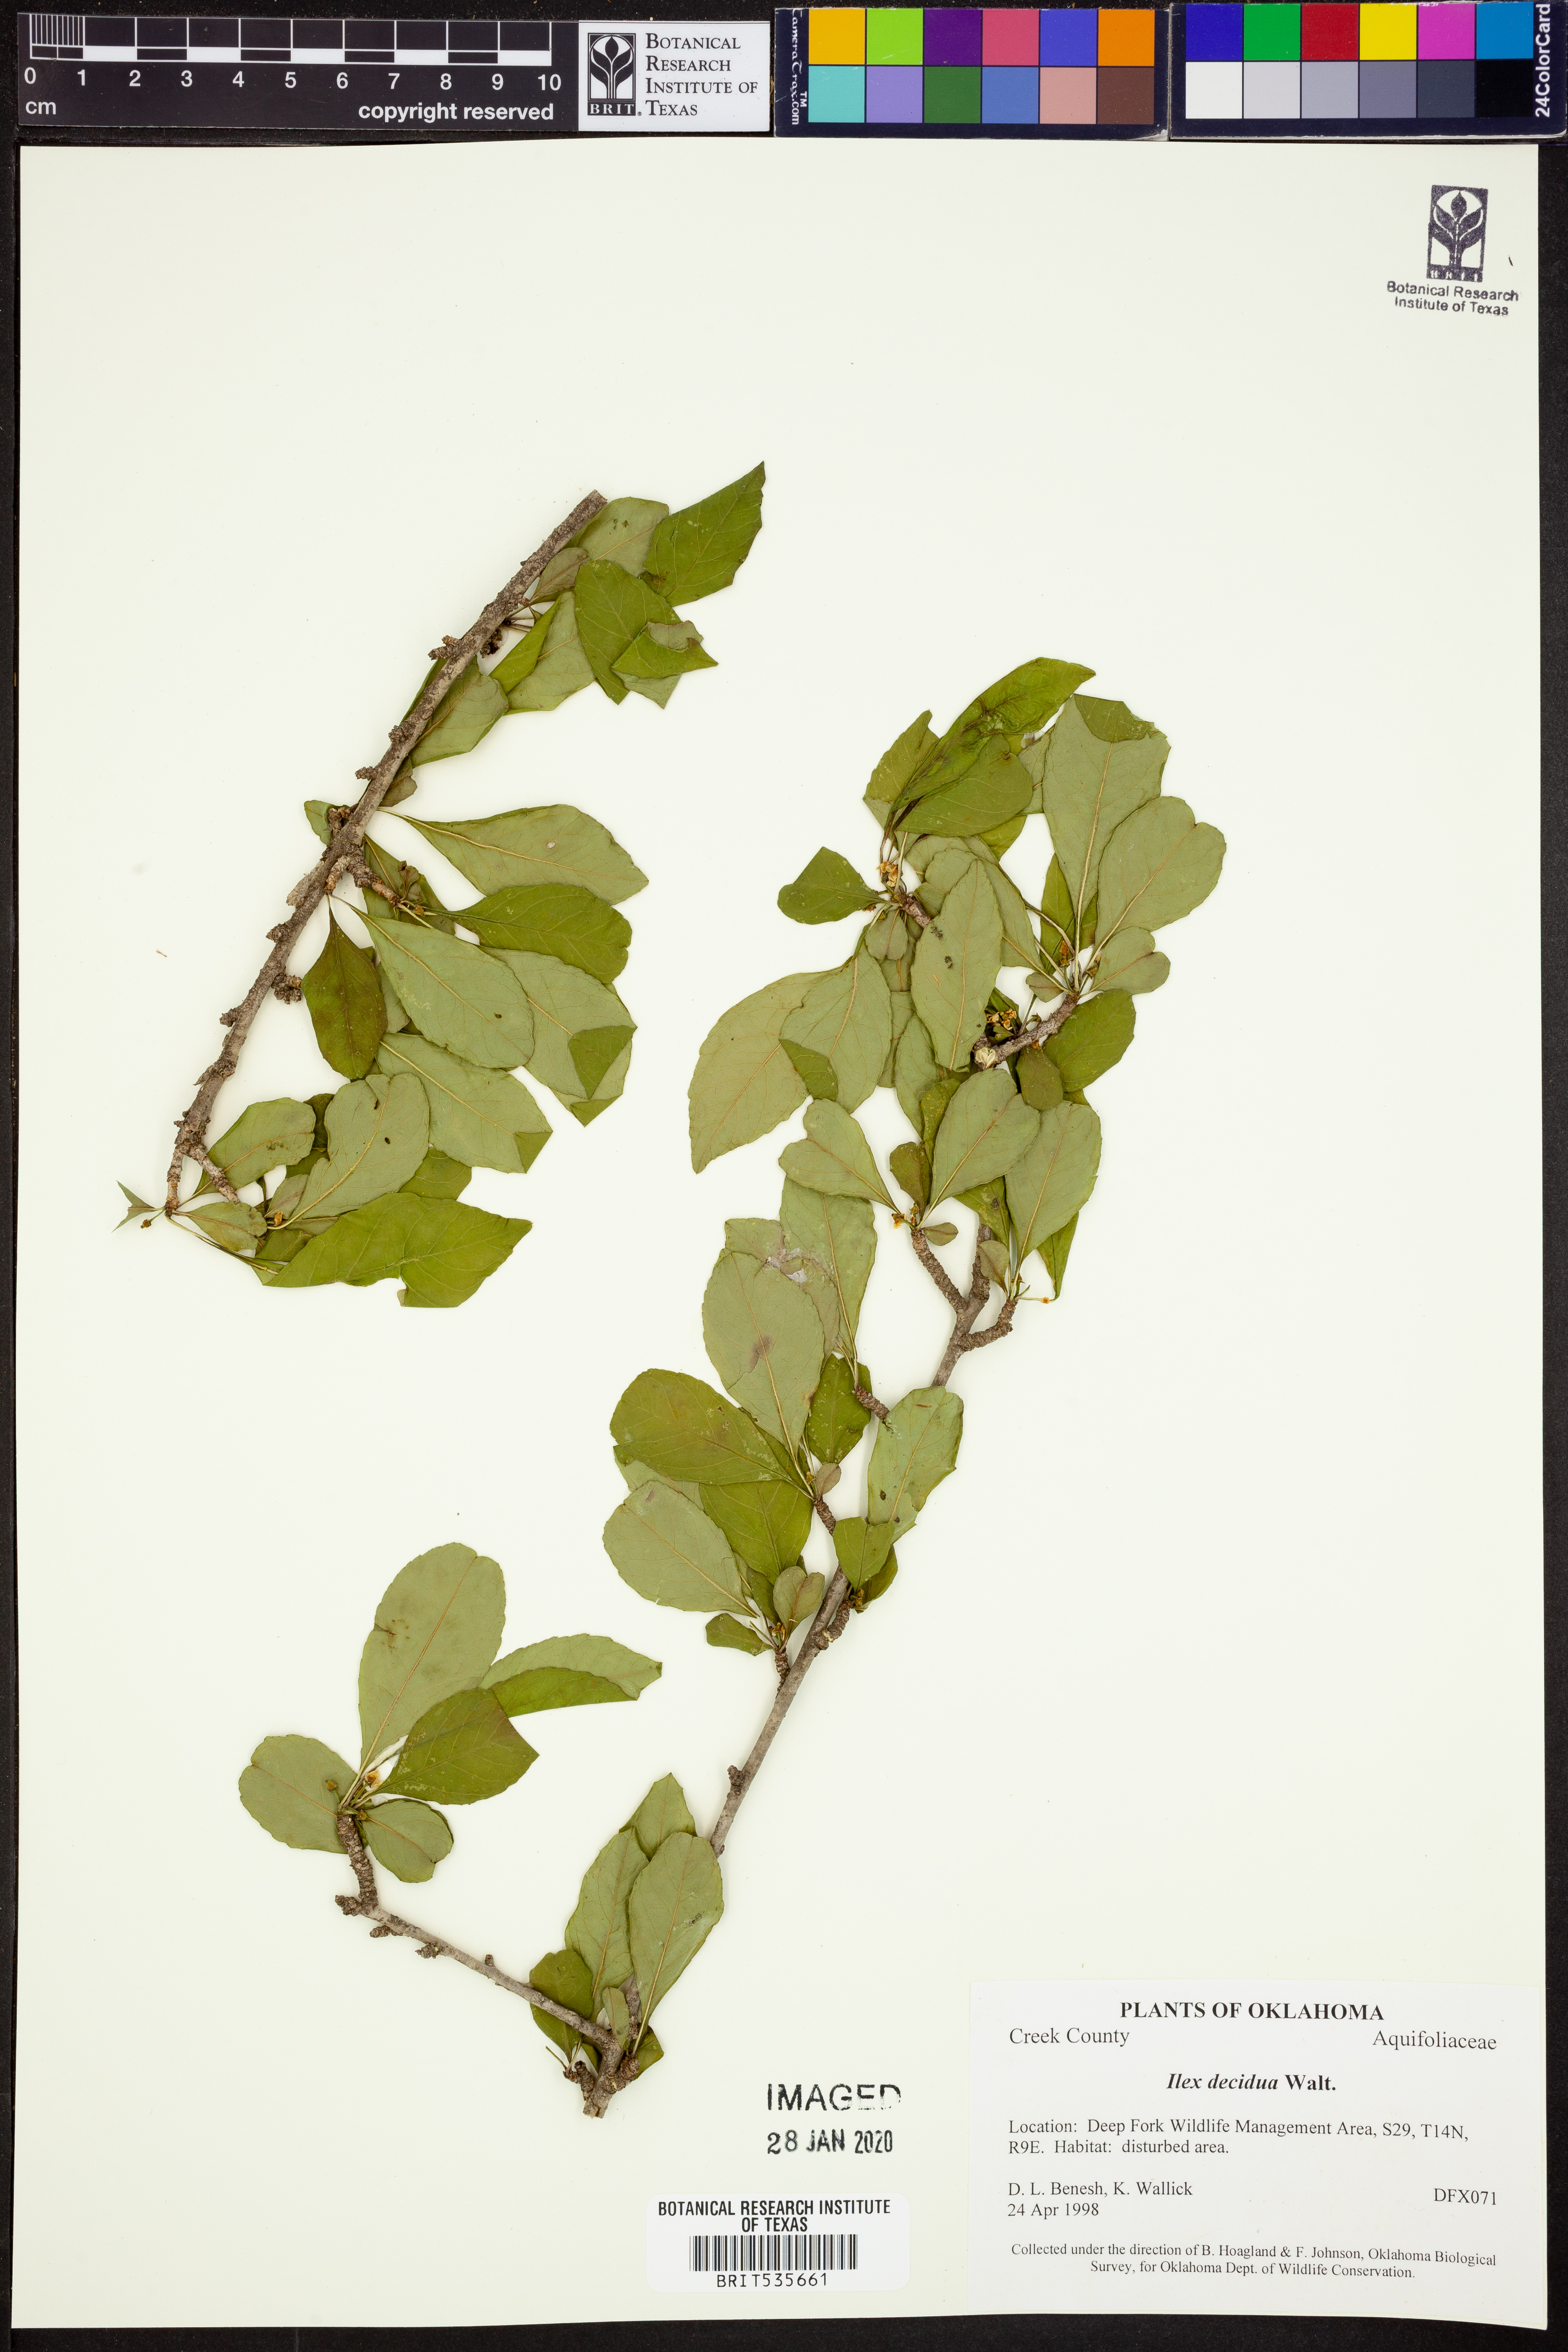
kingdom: Plantae
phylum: Tracheophyta
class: Magnoliopsida
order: Aquifoliales
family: Aquifoliaceae
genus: Ilex
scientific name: Ilex decidua
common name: Possum-haw
